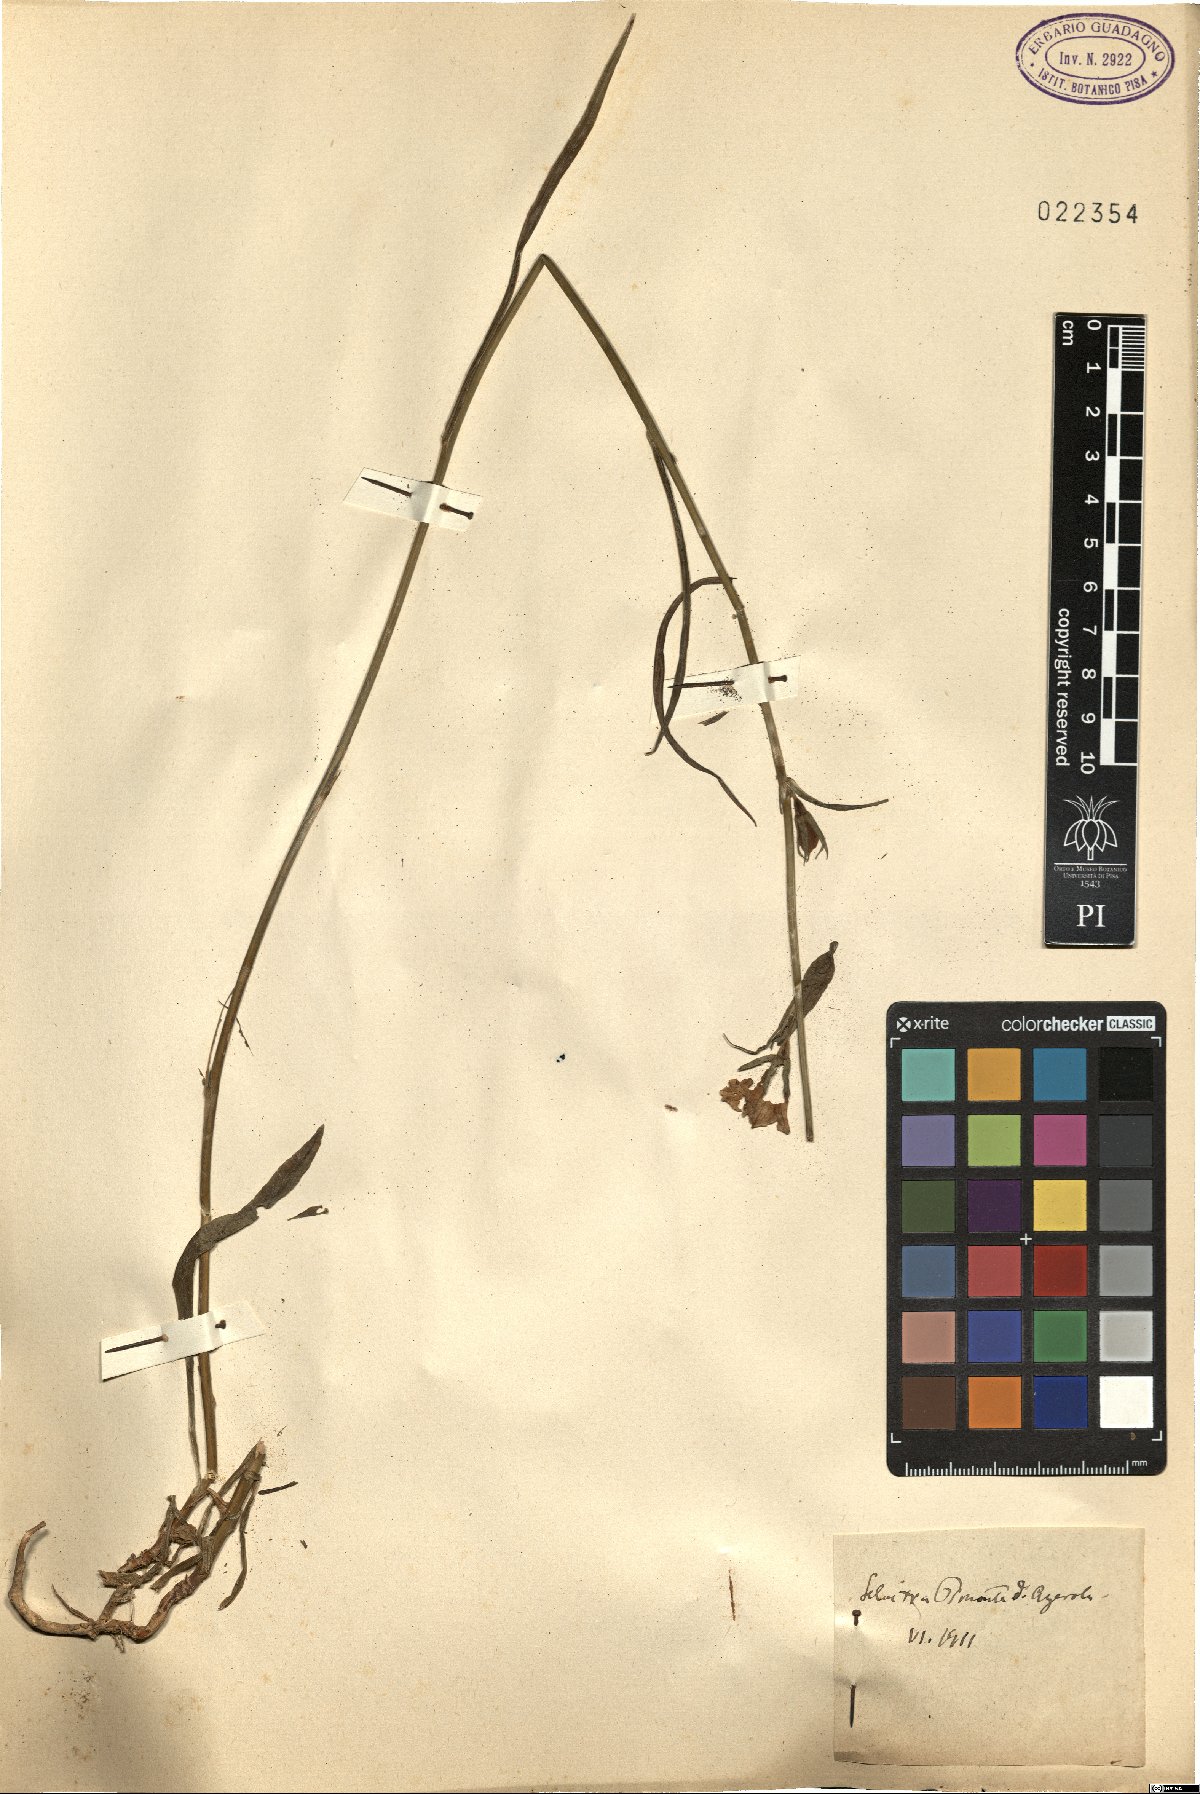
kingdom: Plantae
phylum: Tracheophyta
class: Magnoliopsida
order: Asterales
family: Campanulaceae
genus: Campanula
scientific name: Campanula
